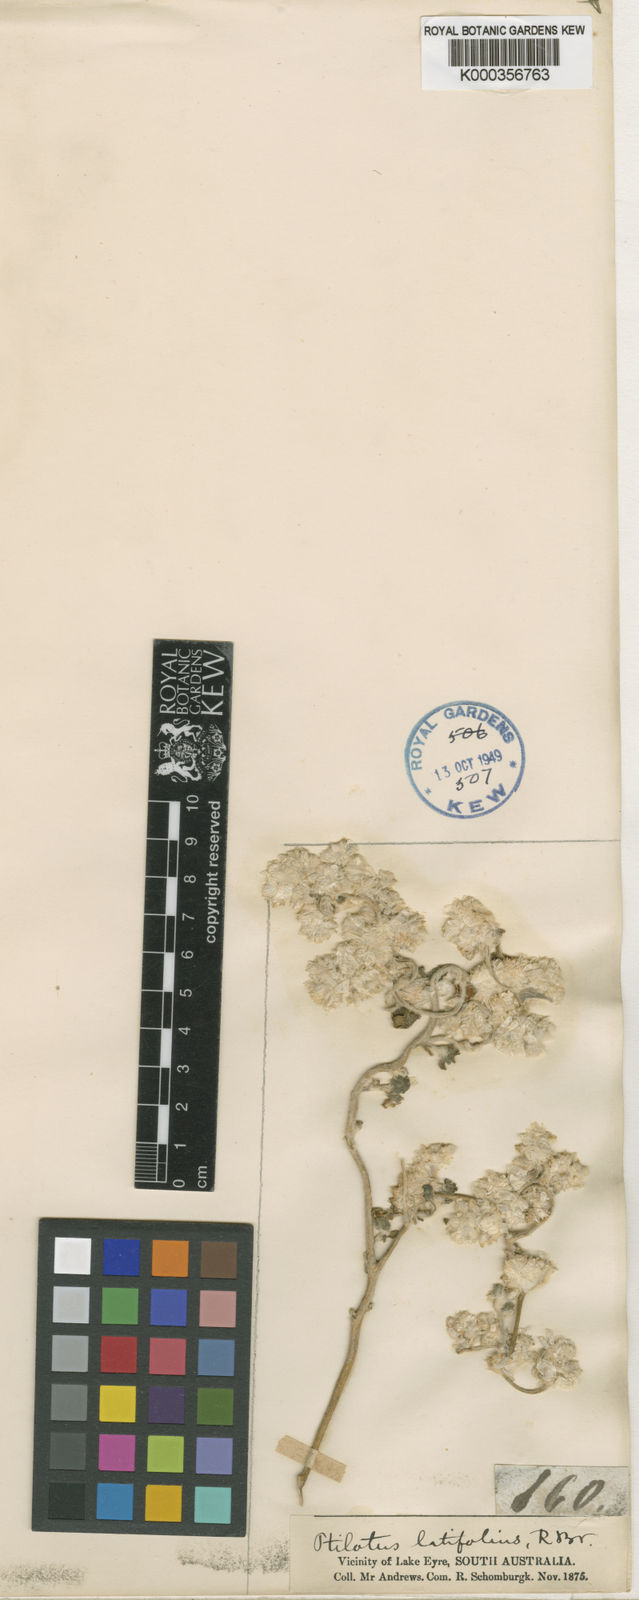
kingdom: Plantae
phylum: Tracheophyta
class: Magnoliopsida
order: Caryophyllales
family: Amaranthaceae
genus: Ptilotus
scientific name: Ptilotus latifolius
